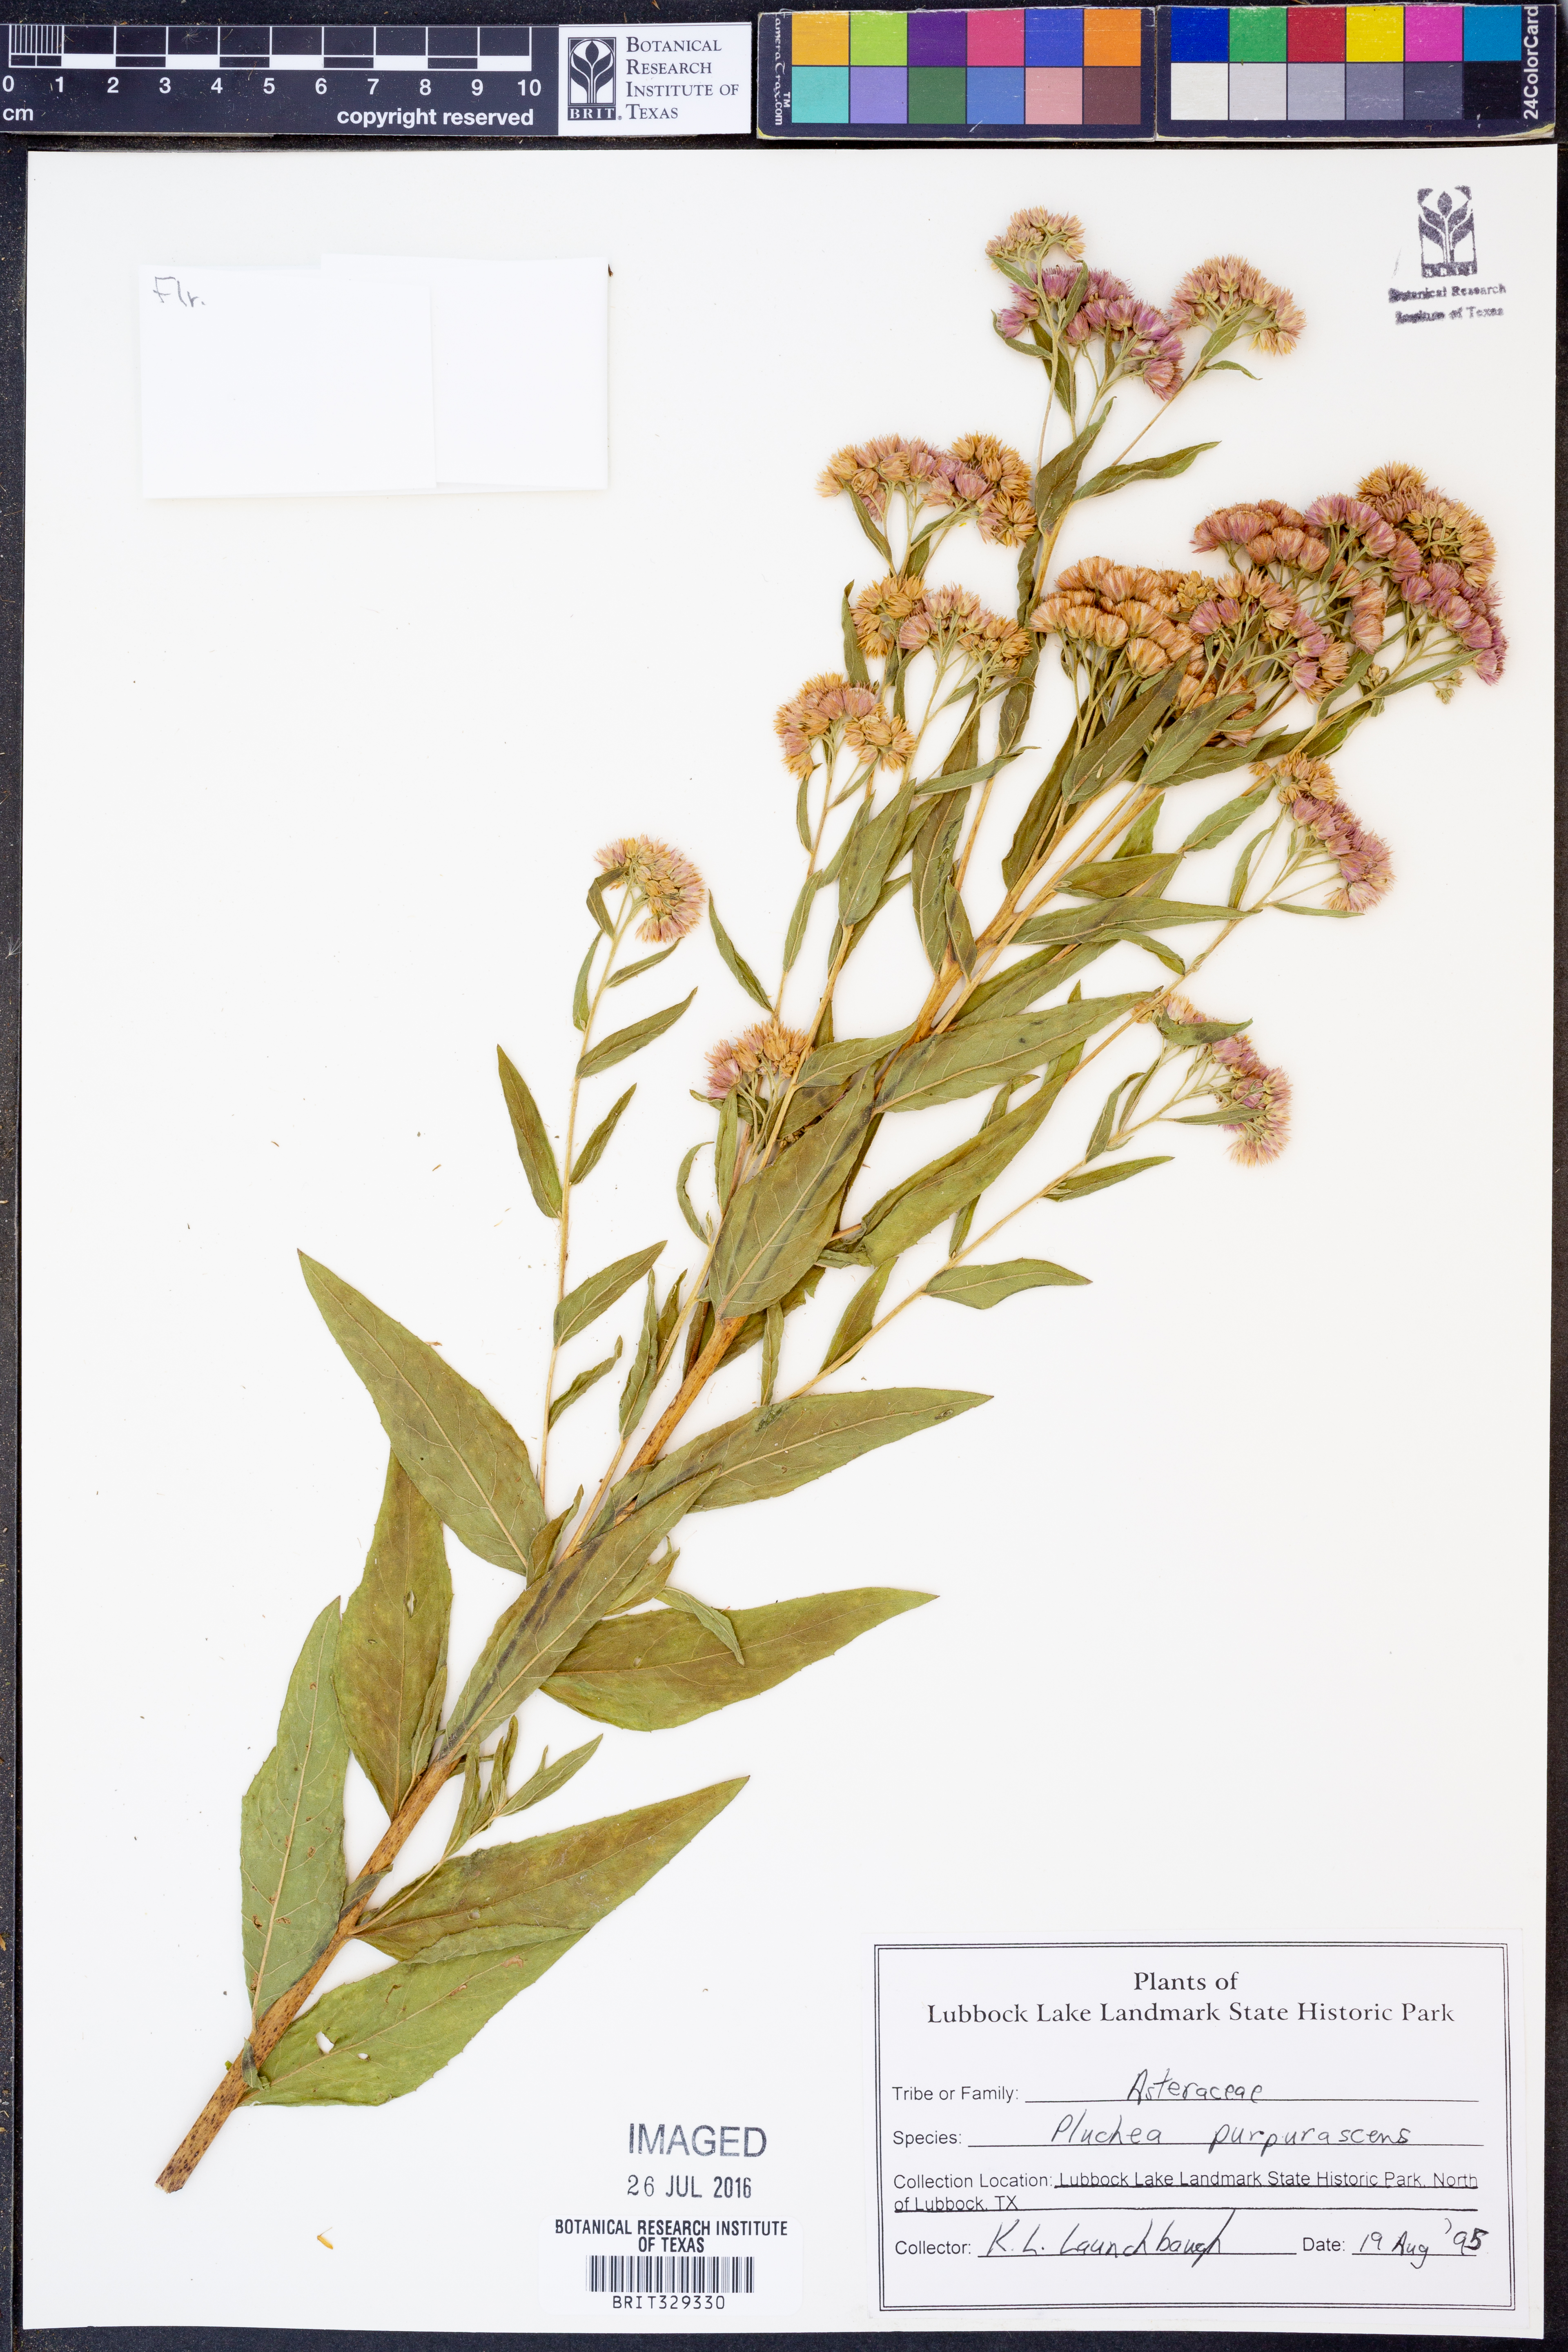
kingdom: Plantae
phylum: Tracheophyta
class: Magnoliopsida
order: Asterales
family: Asteraceae
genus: Pluchea
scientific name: Pluchea odorata
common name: Saltmarsh fleabane
